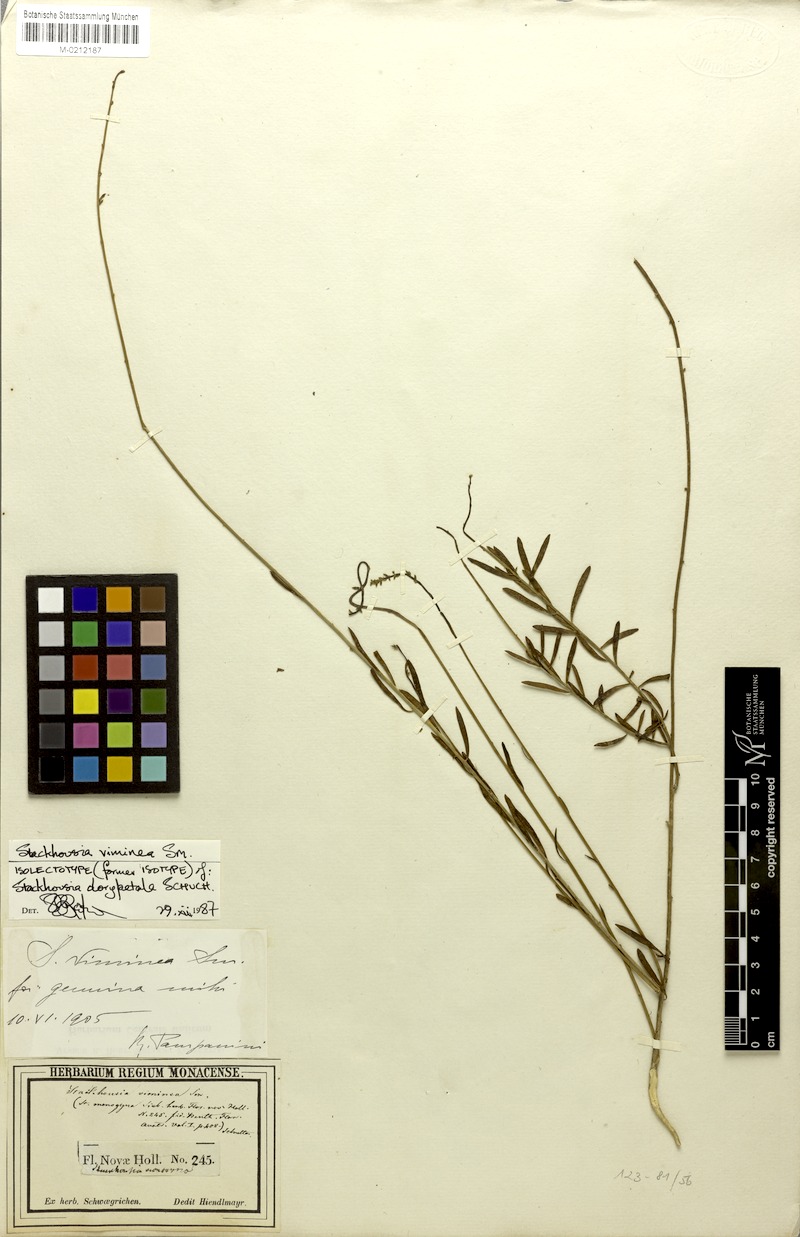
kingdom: Plantae
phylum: Tracheophyta
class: Magnoliopsida
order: Celastrales
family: Celastraceae
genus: Stackhousia
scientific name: Stackhousia viminea
